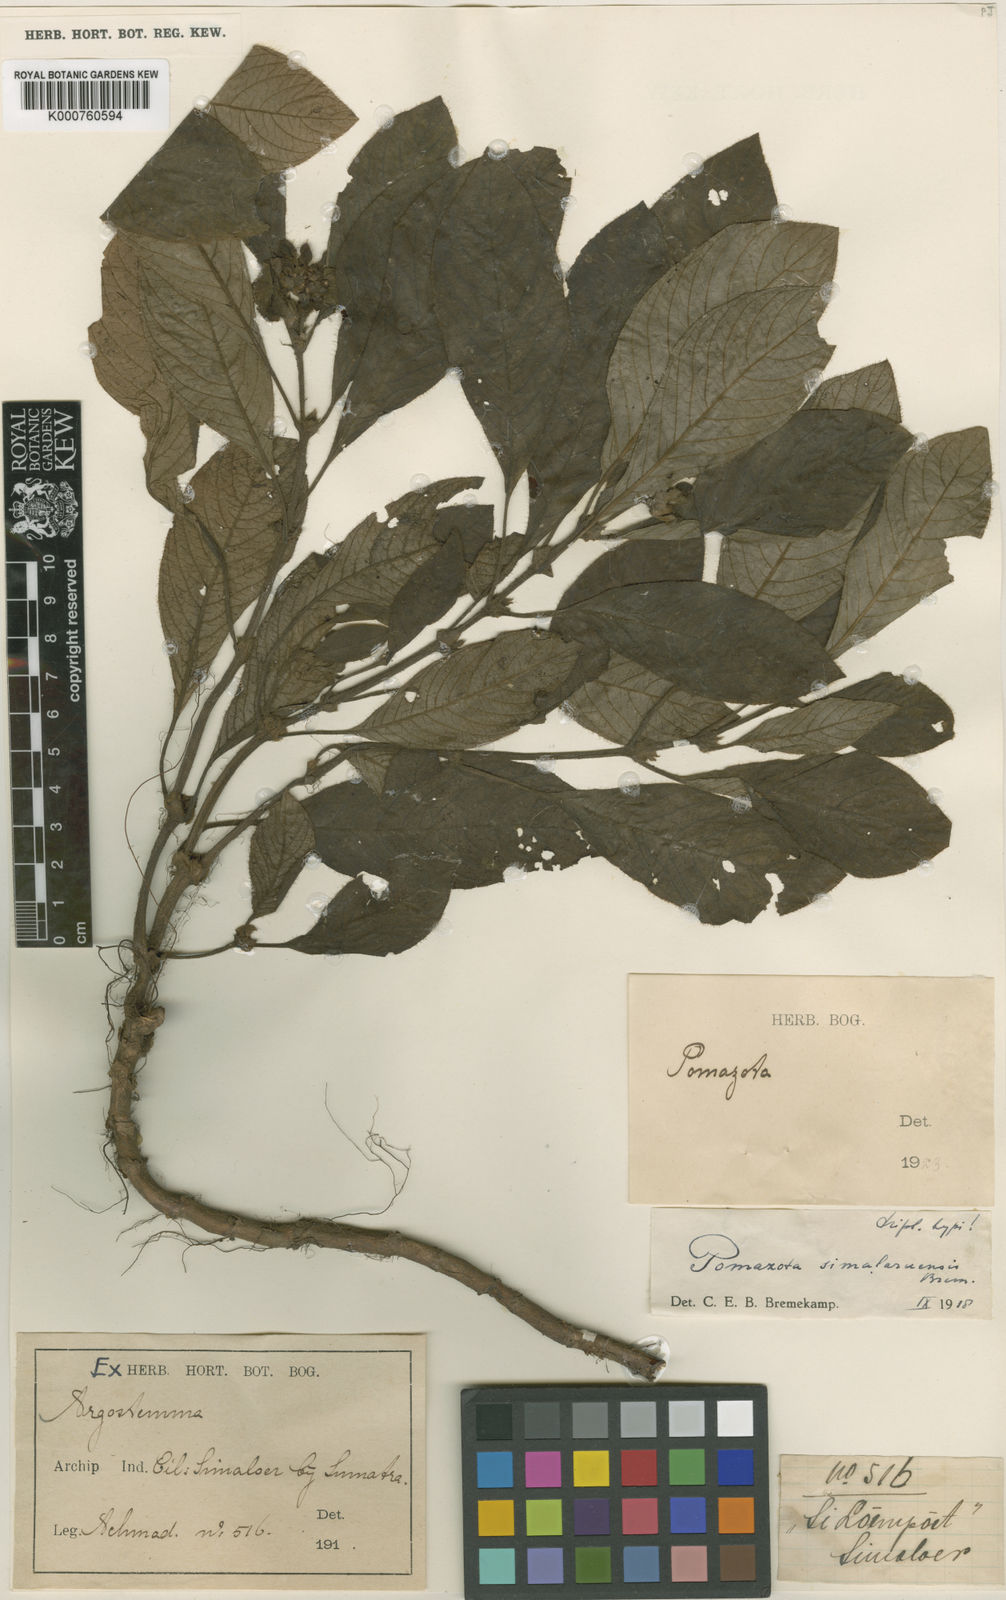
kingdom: Plantae
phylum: Tracheophyta
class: Magnoliopsida
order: Gentianales
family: Rubiaceae
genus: Coptophyllum
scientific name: Coptophyllum simalurense
